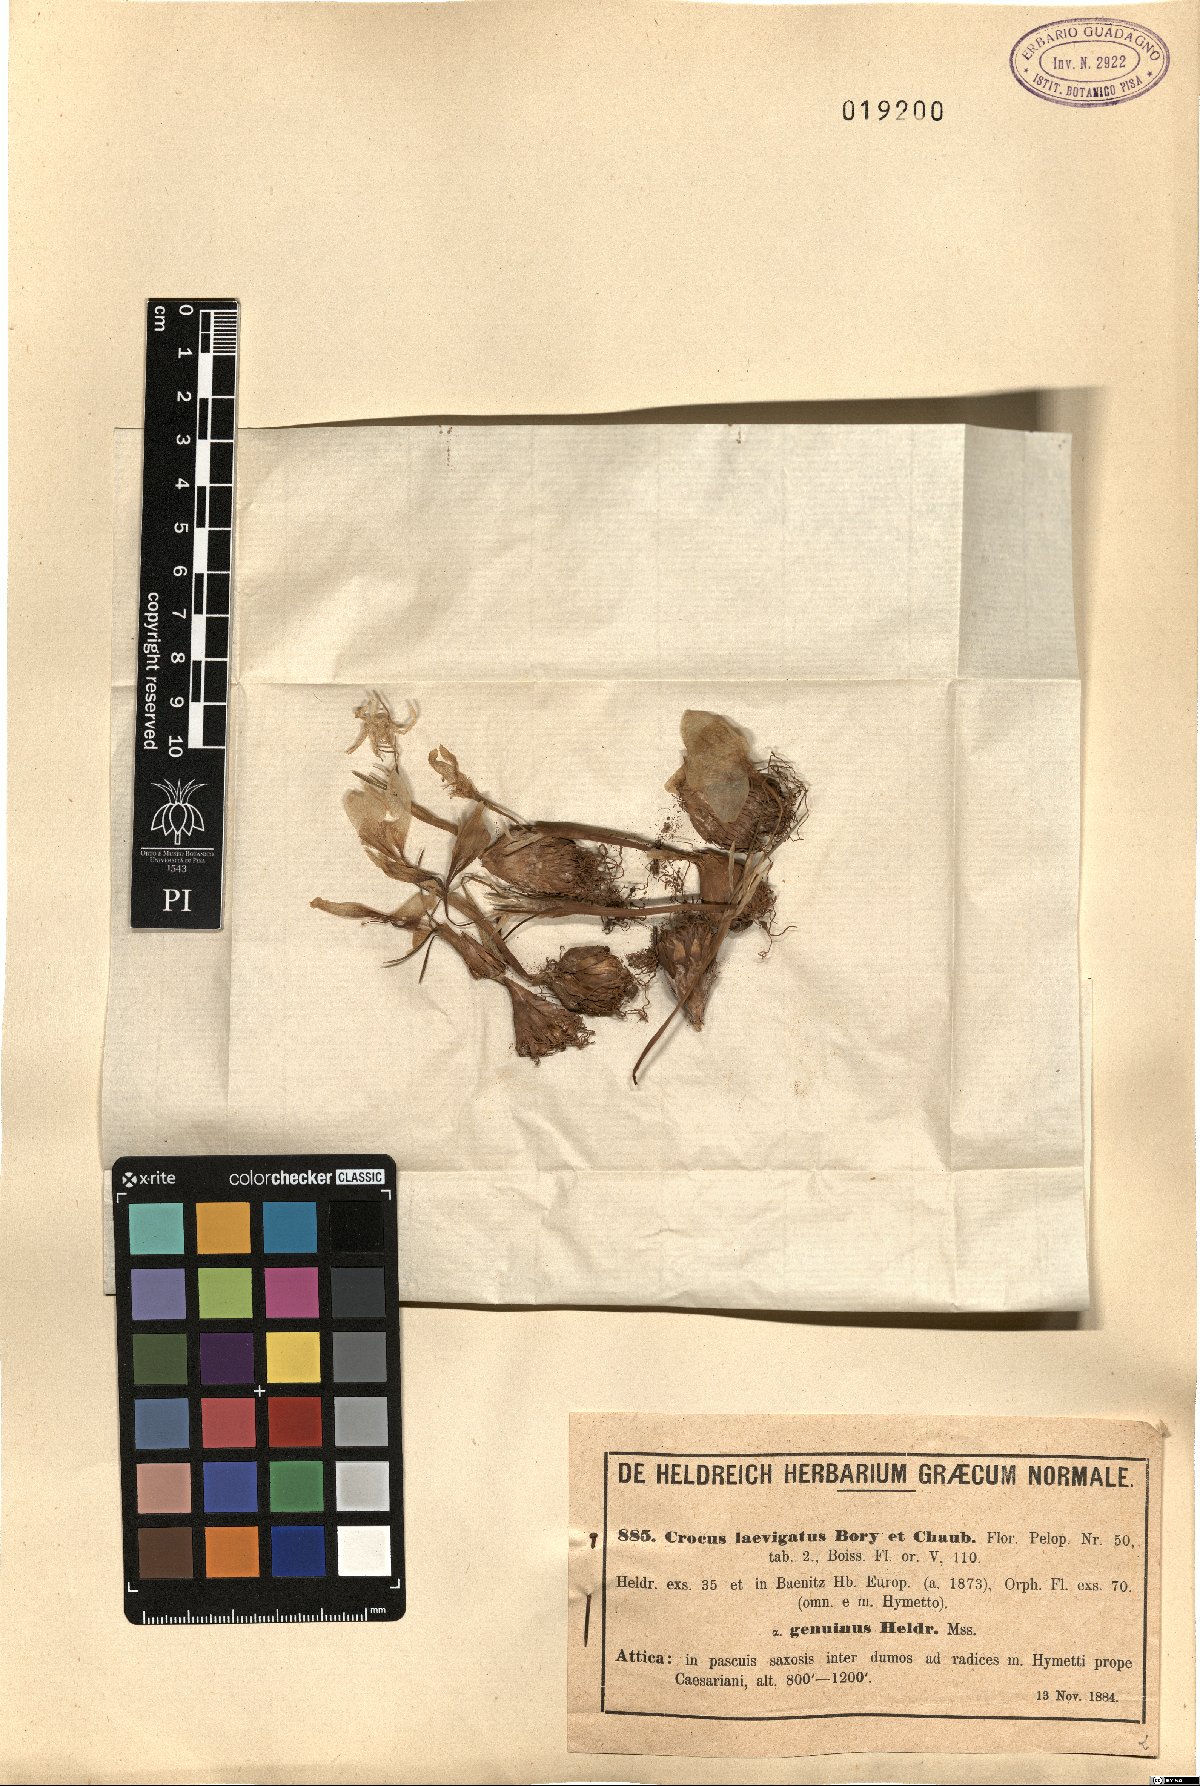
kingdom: Plantae
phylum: Tracheophyta
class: Liliopsida
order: Asparagales
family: Iridaceae
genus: Crocus
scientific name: Crocus laevigatus
